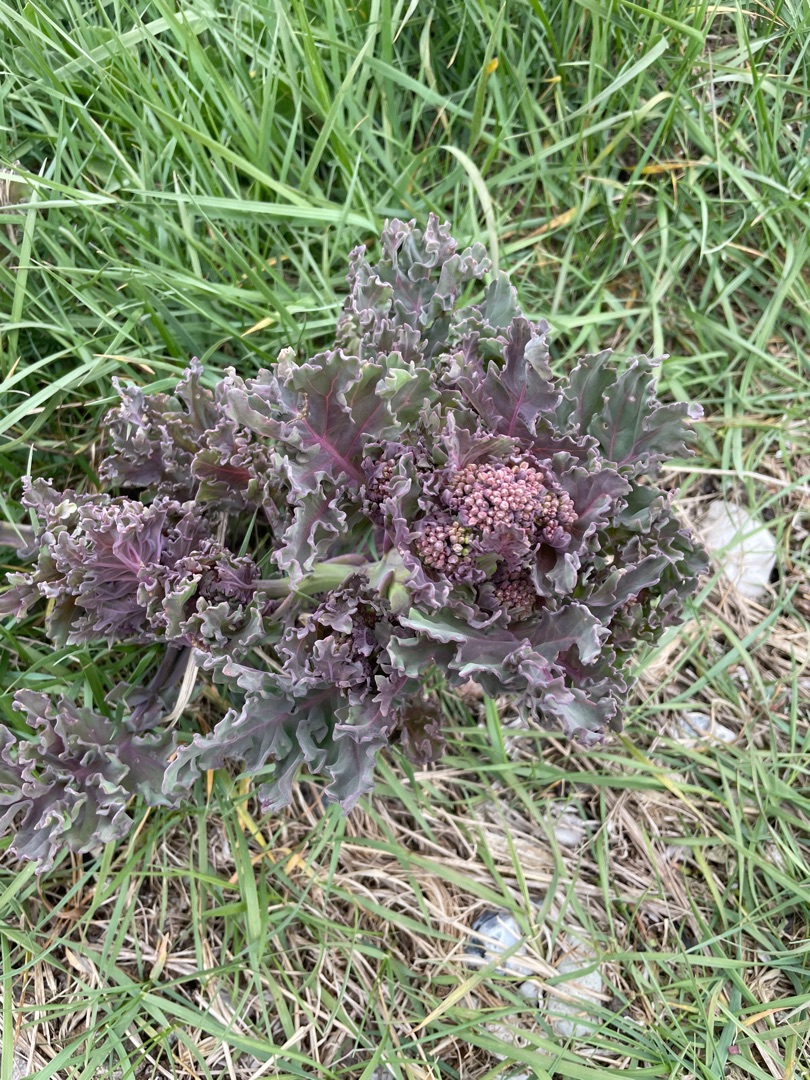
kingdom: Plantae
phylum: Tracheophyta
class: Magnoliopsida
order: Brassicales
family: Brassicaceae
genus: Crambe
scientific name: Crambe maritima
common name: Strandkål
